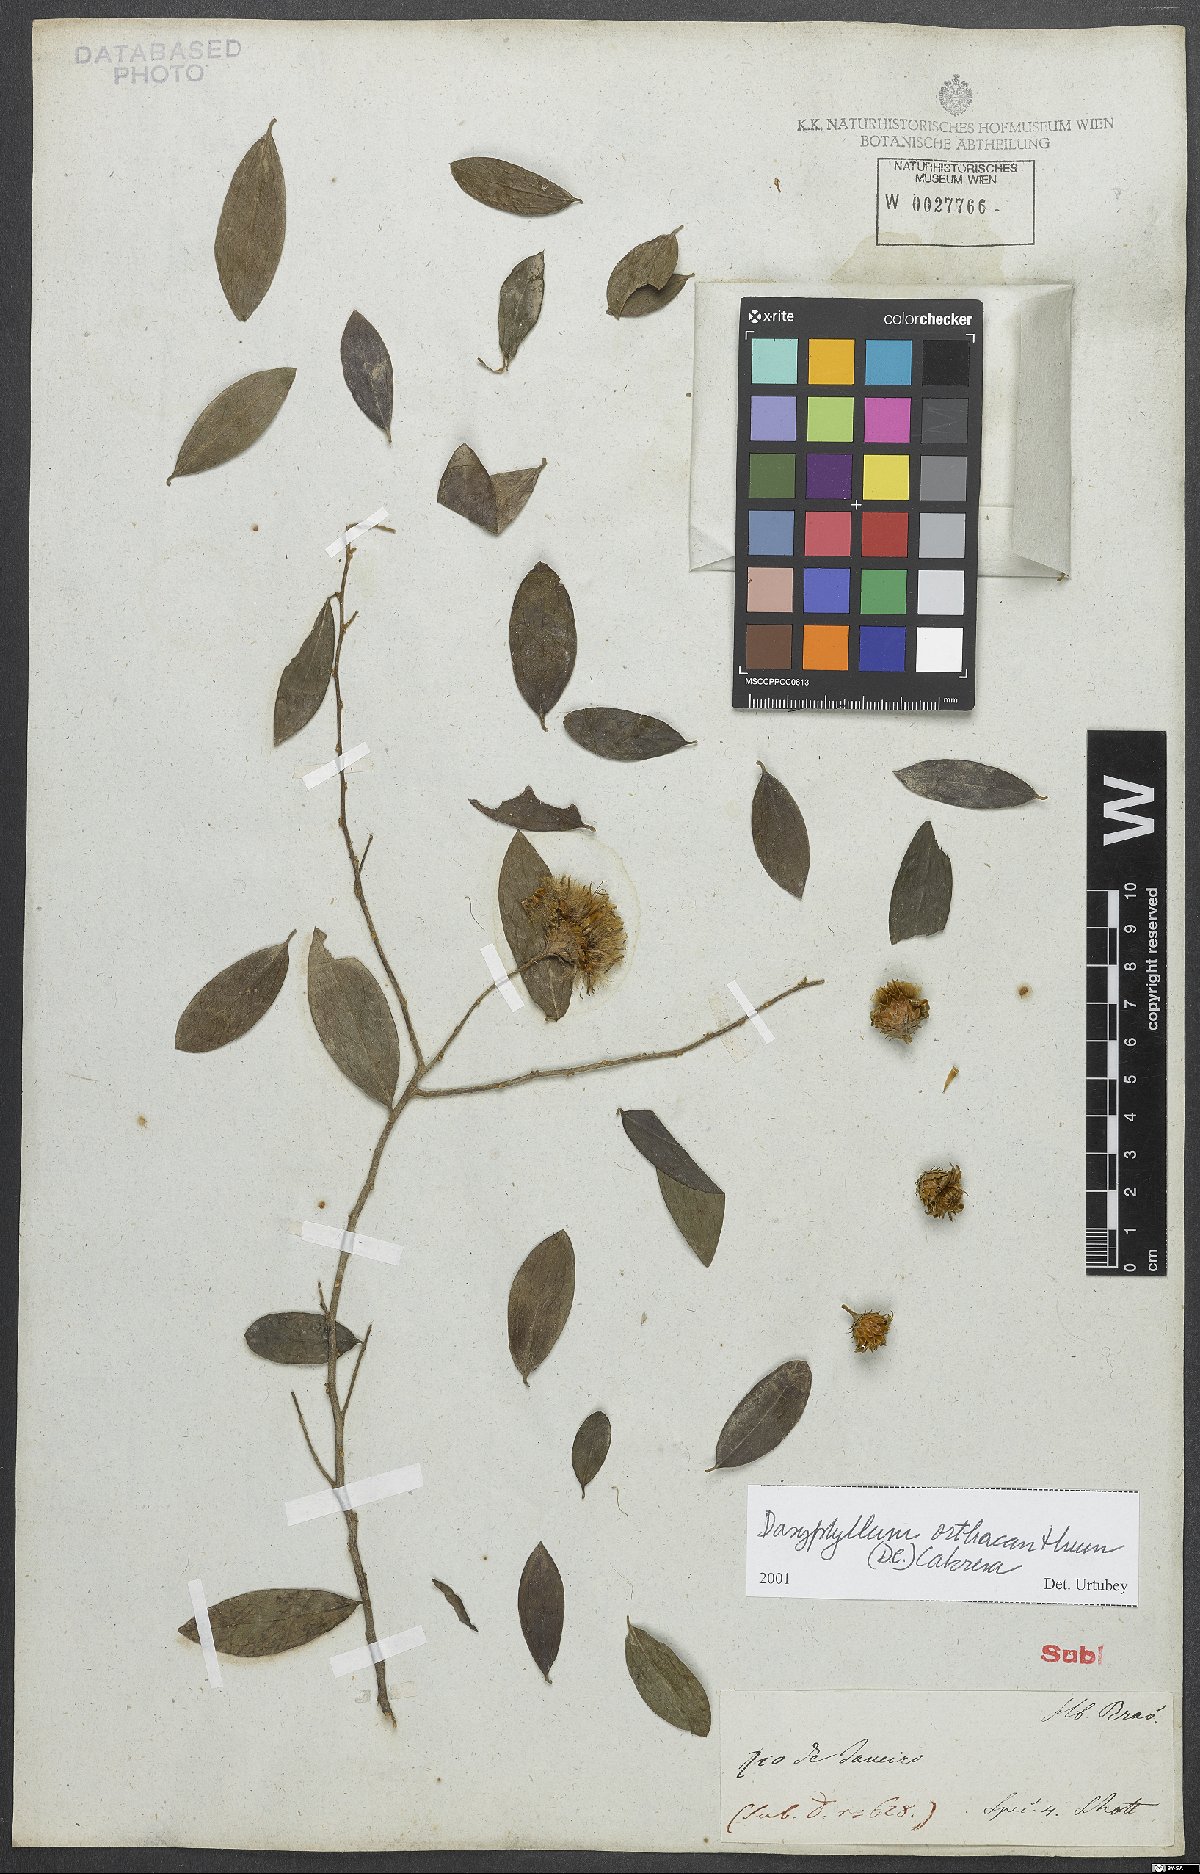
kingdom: Plantae
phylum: Tracheophyta
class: Magnoliopsida
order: Asterales
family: Asteraceae
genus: Dasyphyllum
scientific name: Dasyphyllum orthacanthum
